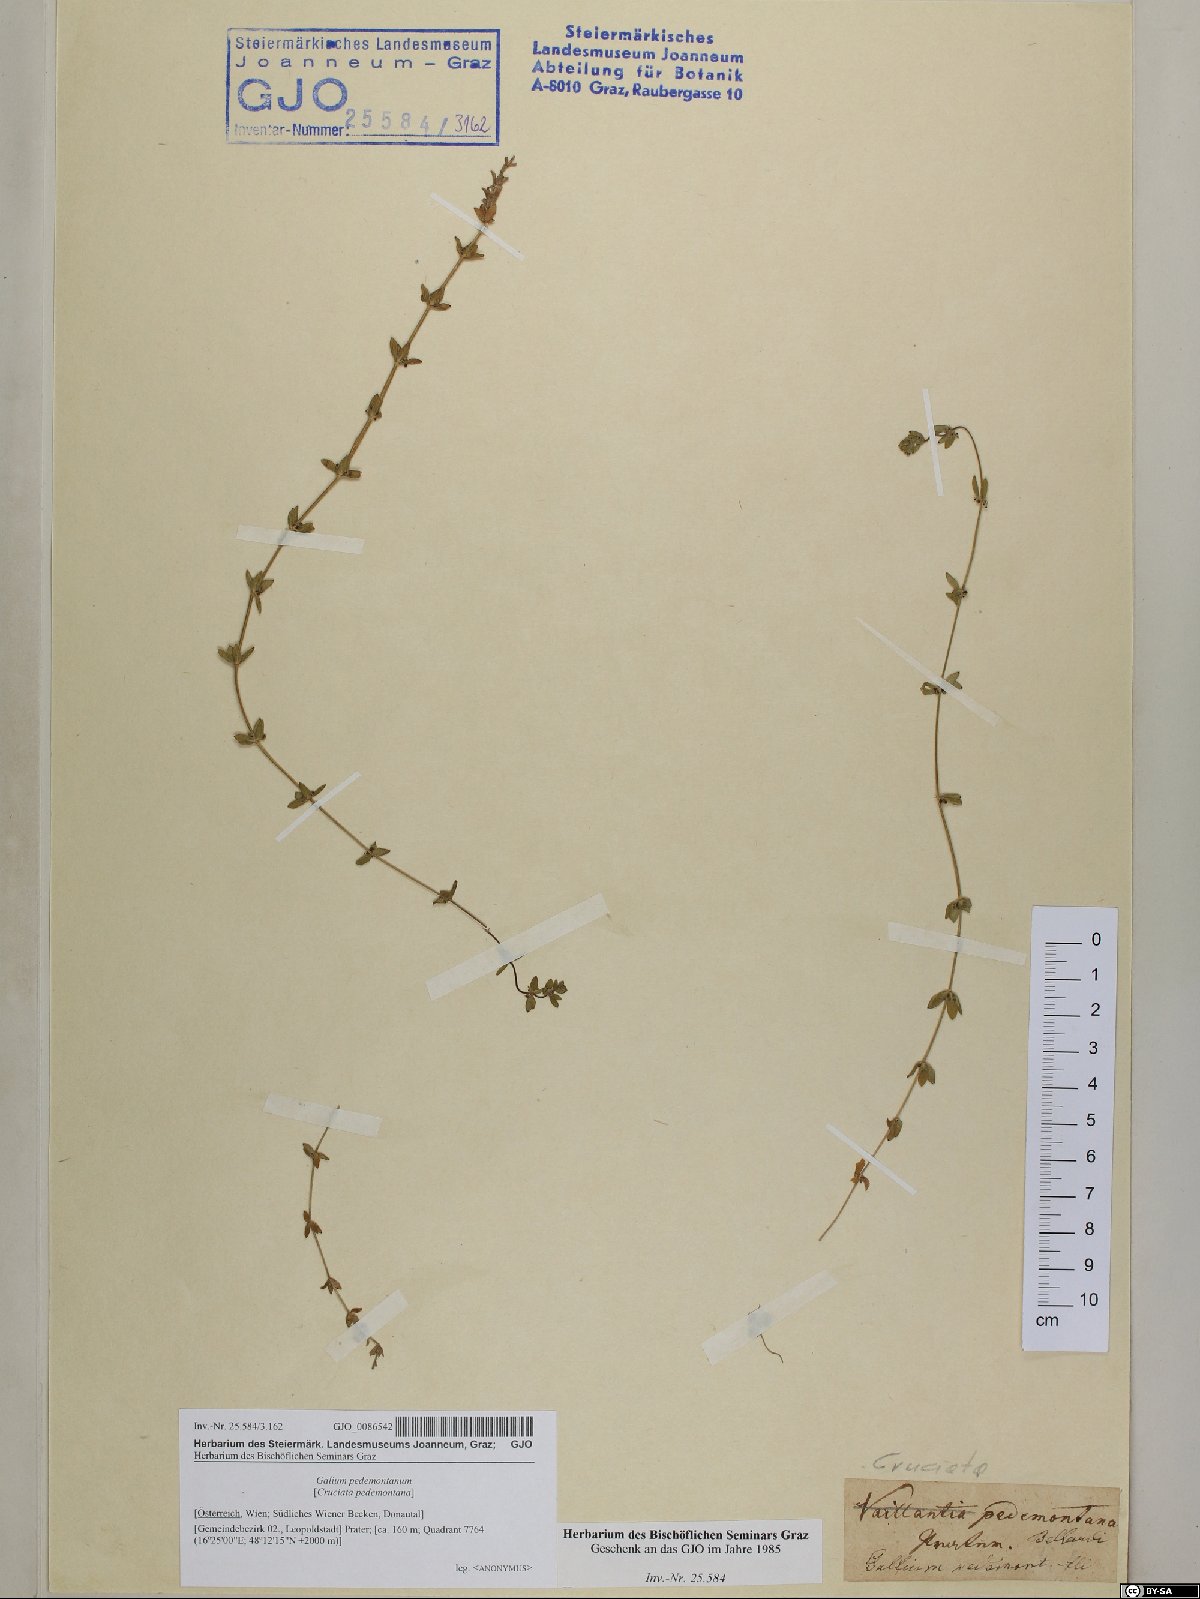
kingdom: Plantae
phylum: Tracheophyta
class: Magnoliopsida
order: Gentianales
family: Rubiaceae
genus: Cruciata
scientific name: Cruciata pedemontana
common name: Piedmont bedstraw
